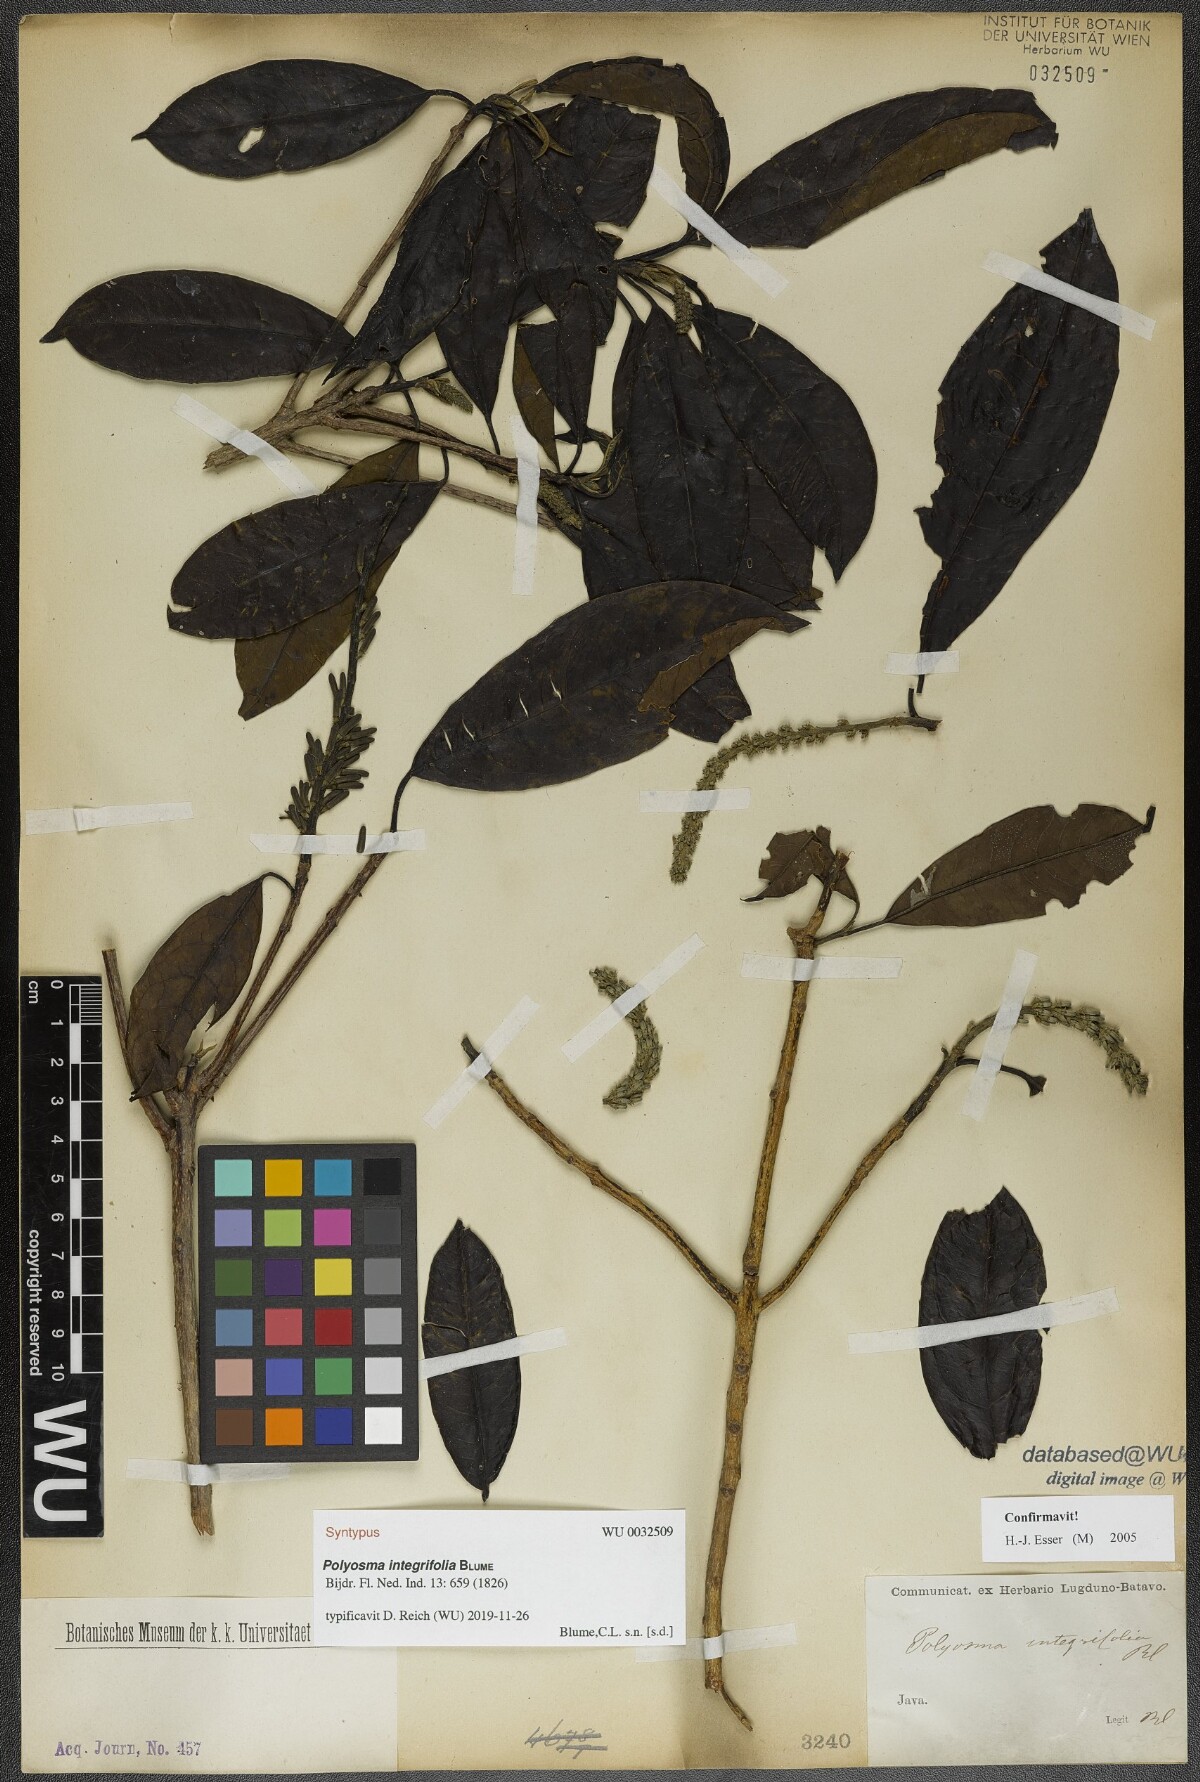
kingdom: Plantae
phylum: Tracheophyta
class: Magnoliopsida
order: Escalloniales
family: Escalloniaceae
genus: Polyosma
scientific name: Polyosma integrifolia
